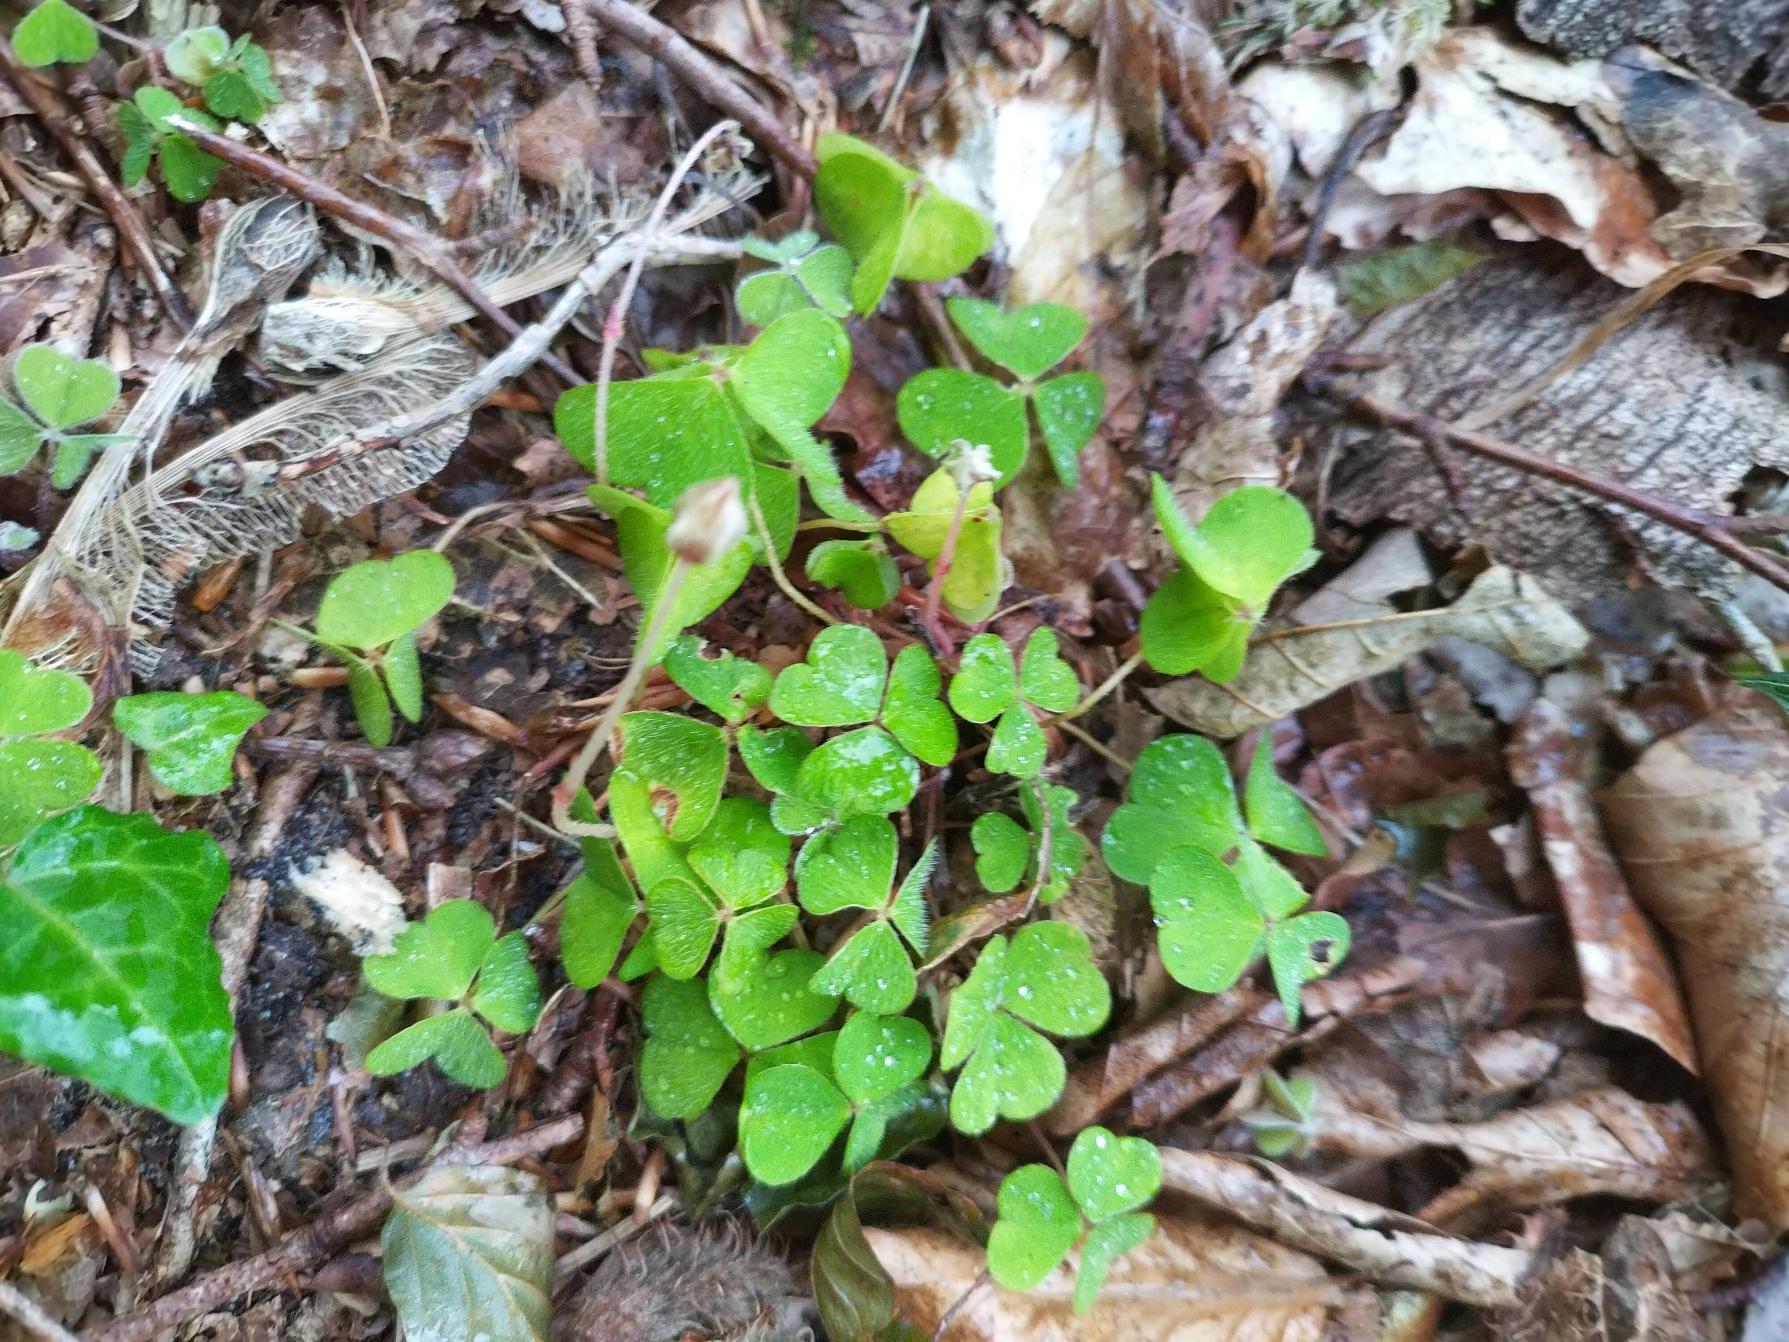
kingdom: Plantae
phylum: Tracheophyta
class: Magnoliopsida
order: Oxalidales
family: Oxalidaceae
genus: Oxalis
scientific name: Oxalis acetosella
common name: Skovsyre
